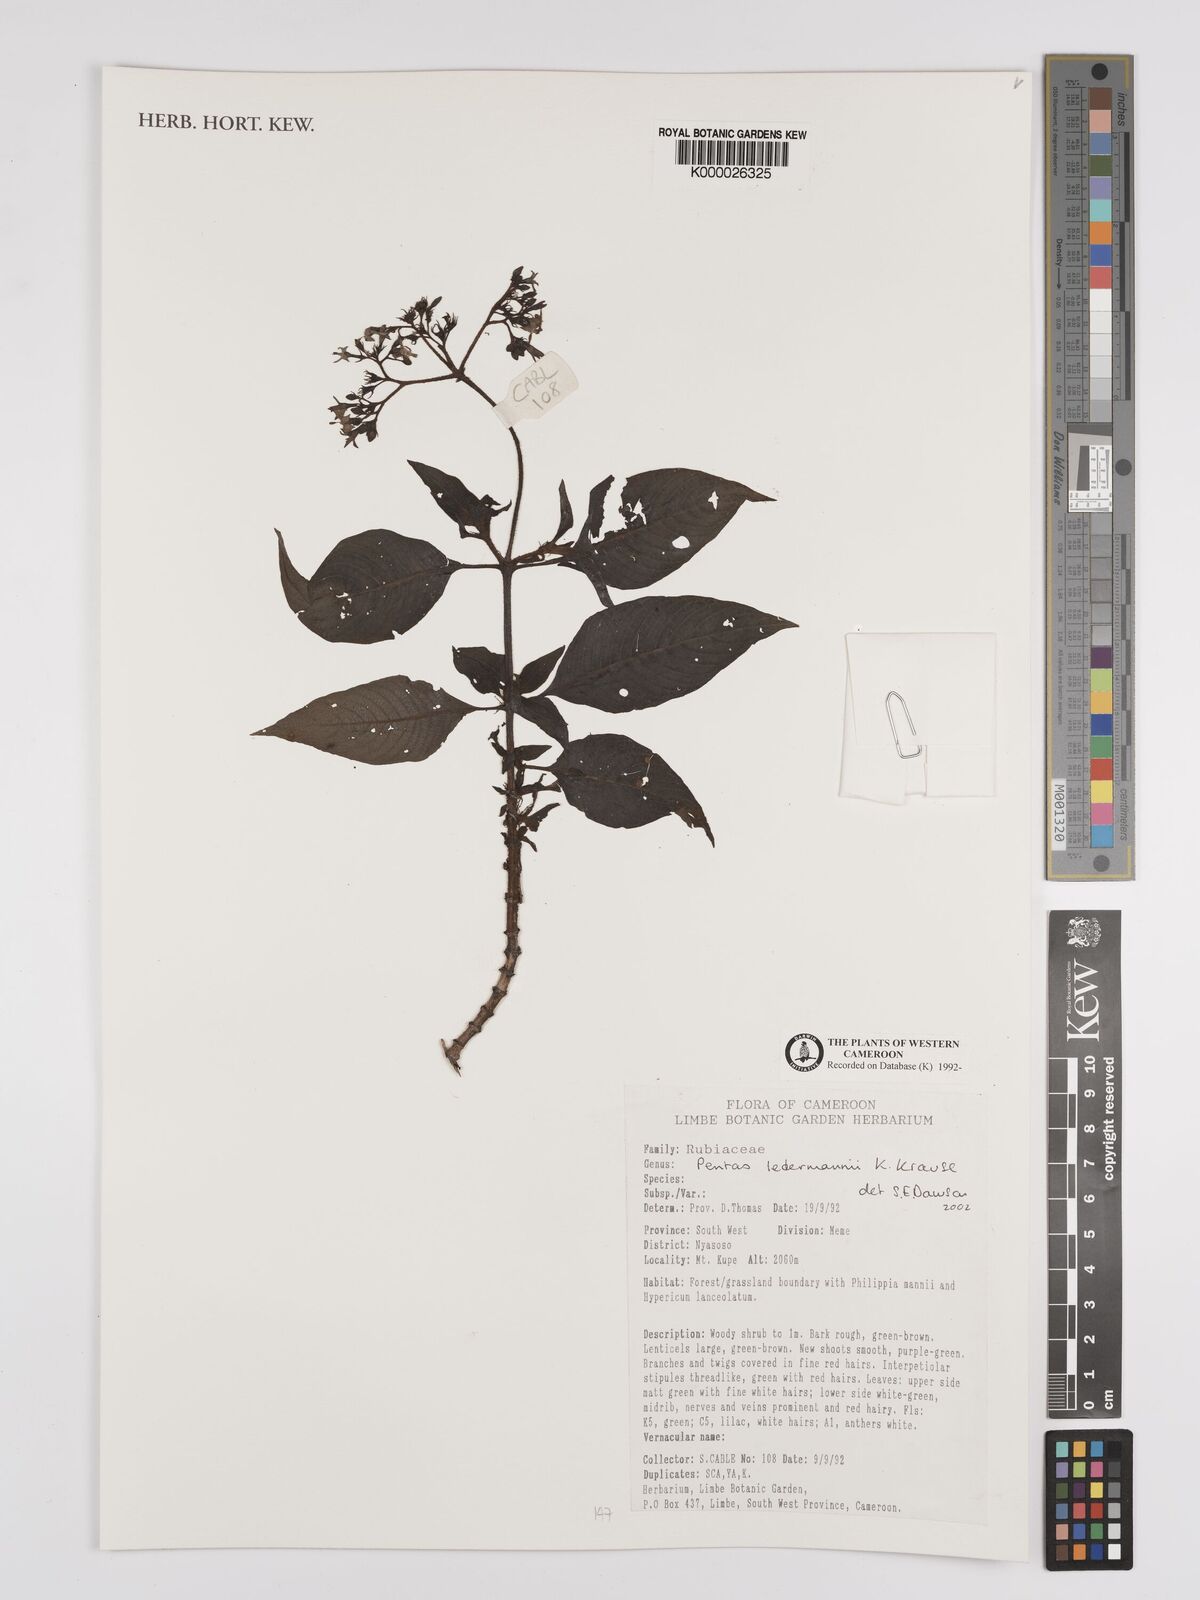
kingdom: Plantae
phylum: Tracheophyta
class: Magnoliopsida
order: Gentianales
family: Rubiaceae
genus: Phyllopentas
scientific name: Phyllopentas ledermannii
